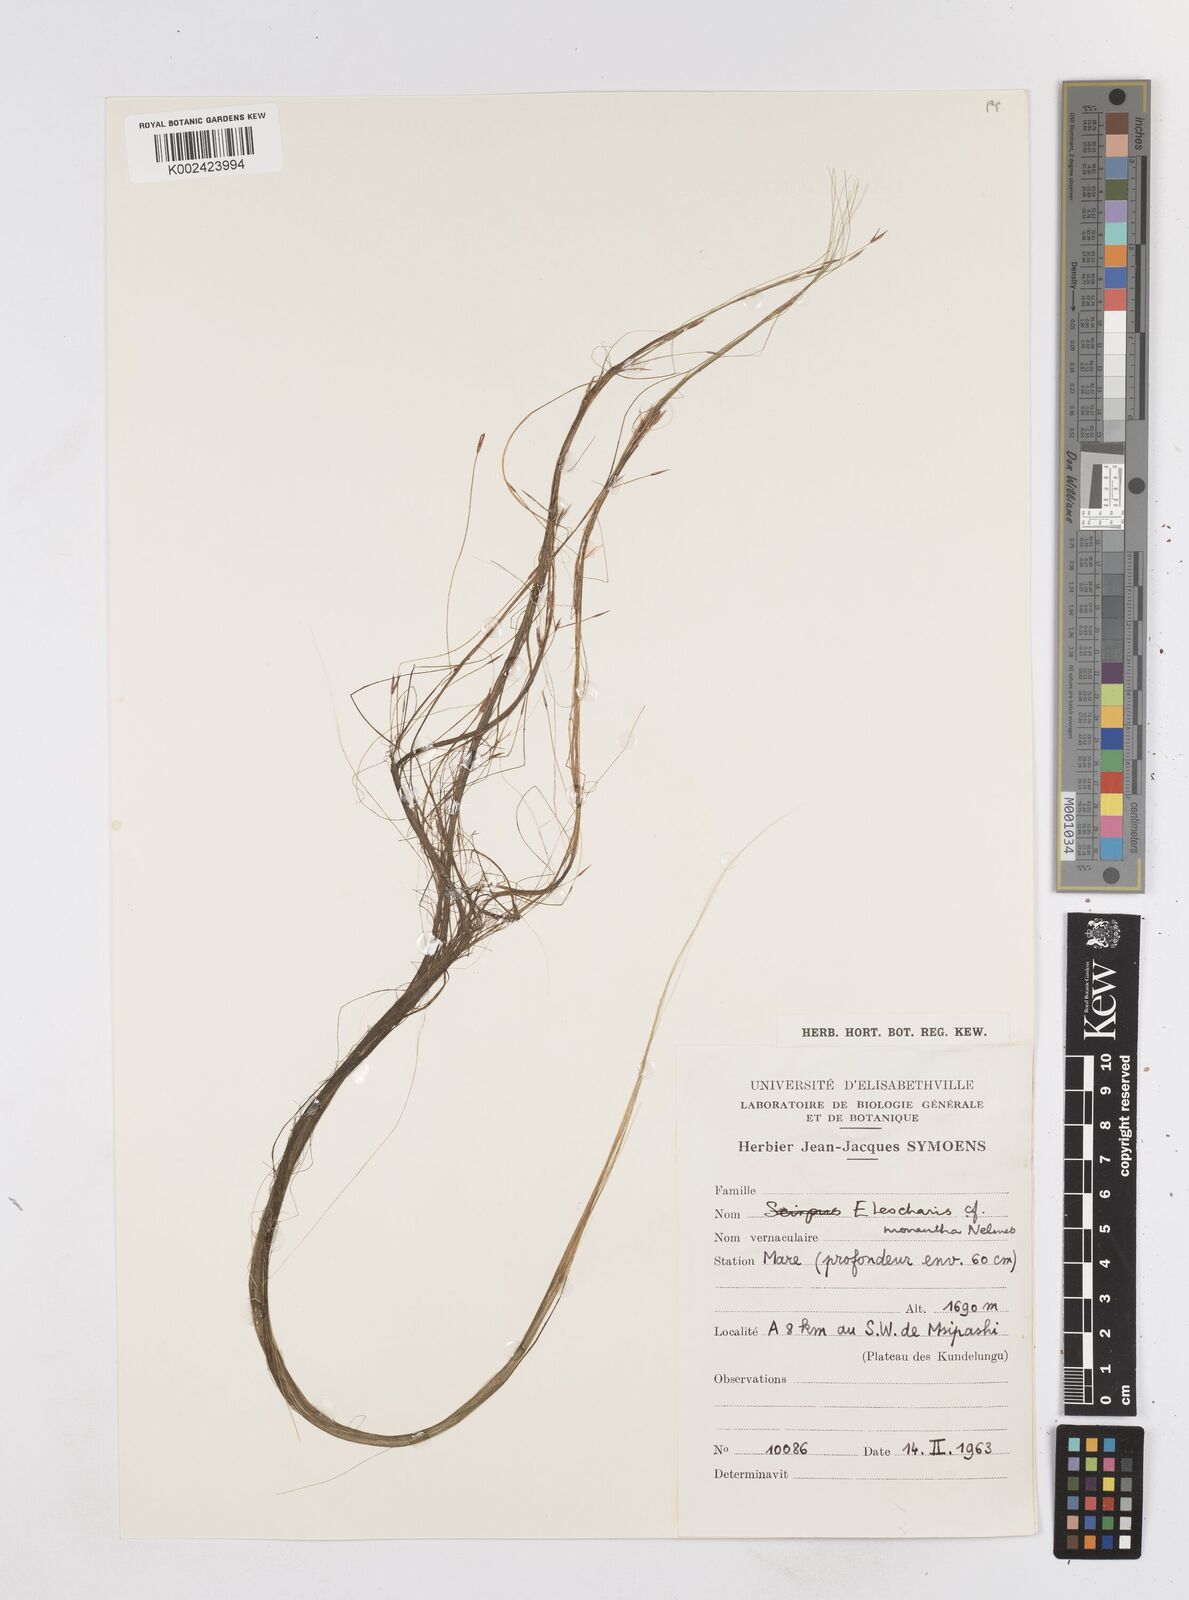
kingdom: Plantae
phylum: Tracheophyta
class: Liliopsida
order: Poales
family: Cyperaceae
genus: Eleocharis
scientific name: Eleocharis monantha
